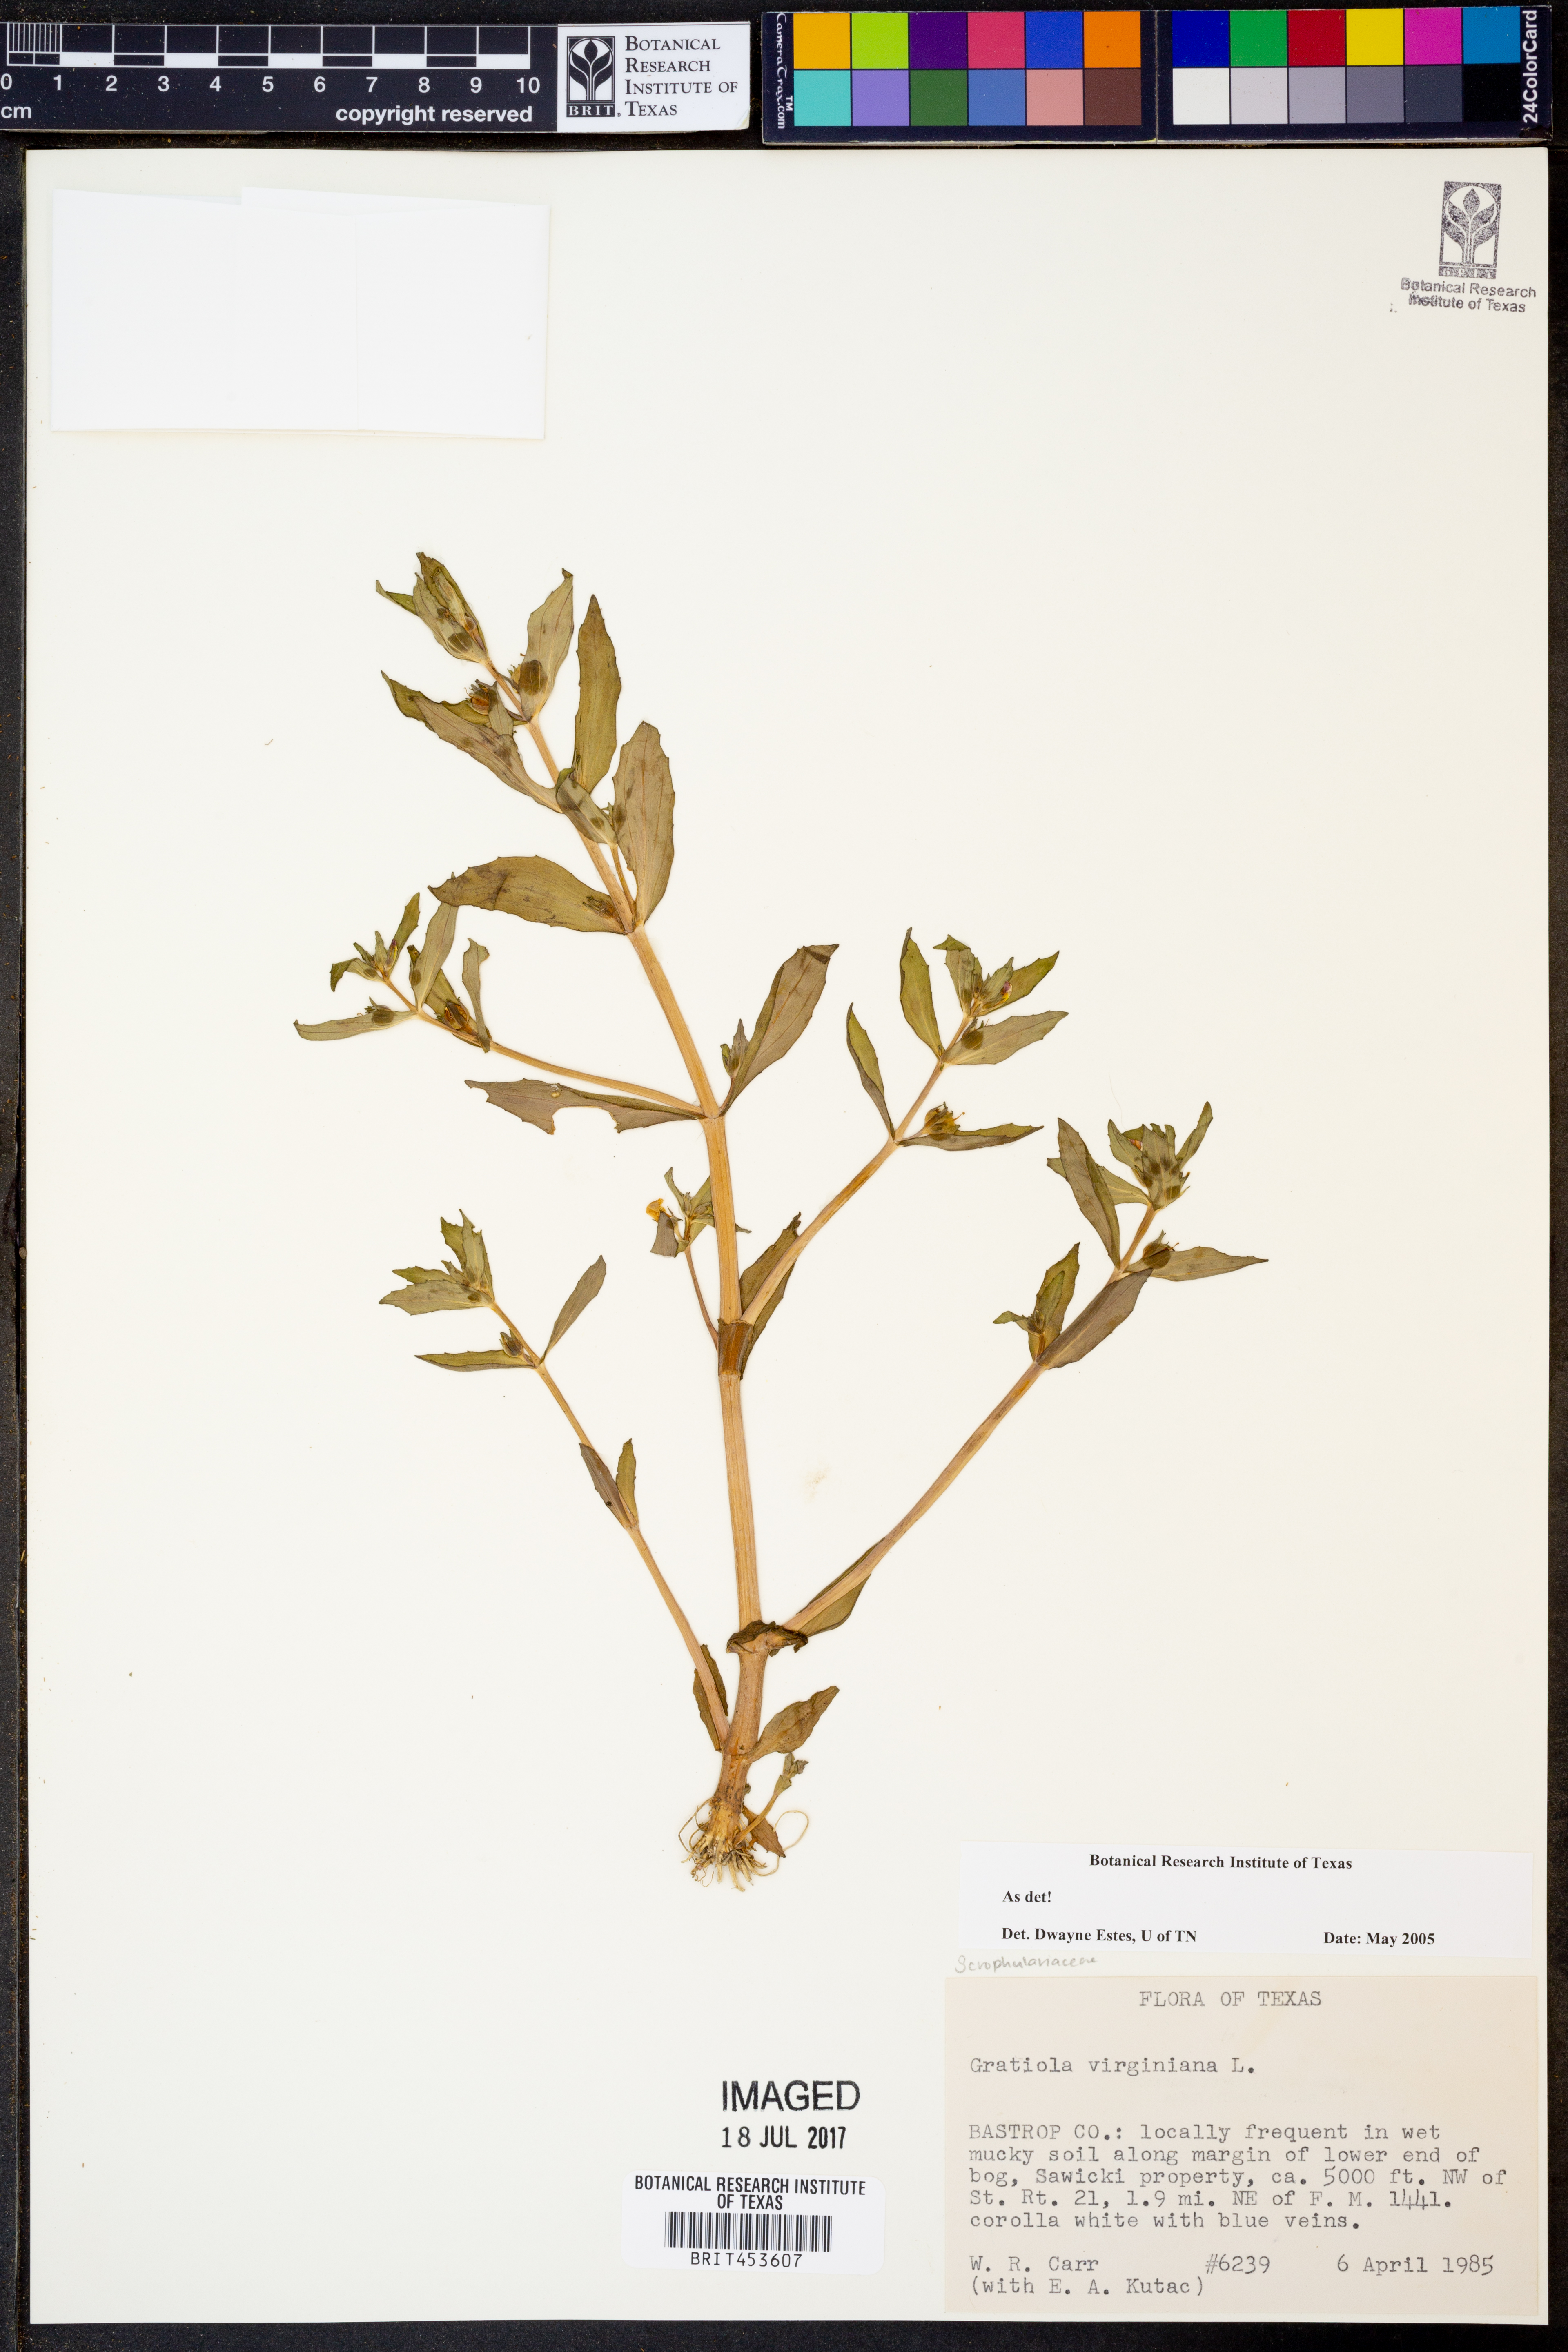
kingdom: Plantae
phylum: Tracheophyta
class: Magnoliopsida
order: Lamiales
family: Plantaginaceae
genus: Gratiola
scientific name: Gratiola virginiana
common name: Roundfruit hedgehyssop
